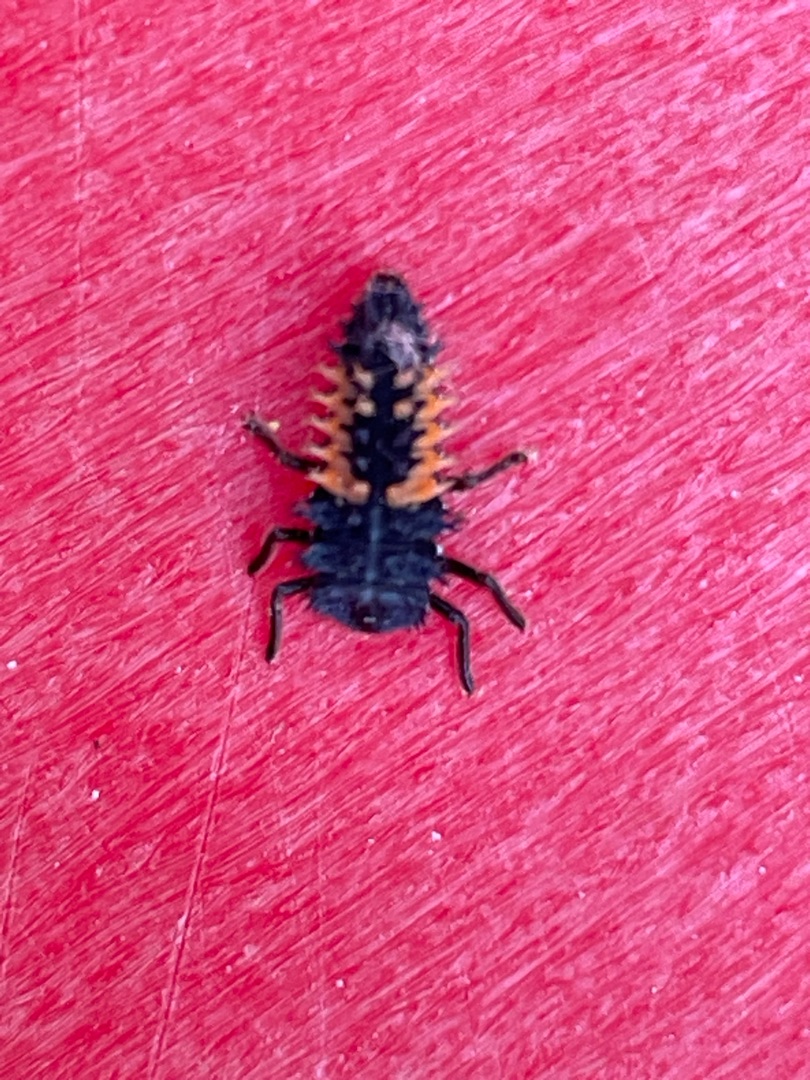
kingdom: Animalia
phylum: Arthropoda
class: Insecta
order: Coleoptera
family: Coccinellidae
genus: Harmonia
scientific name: Harmonia axyridis
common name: Harlekinmariehøne
